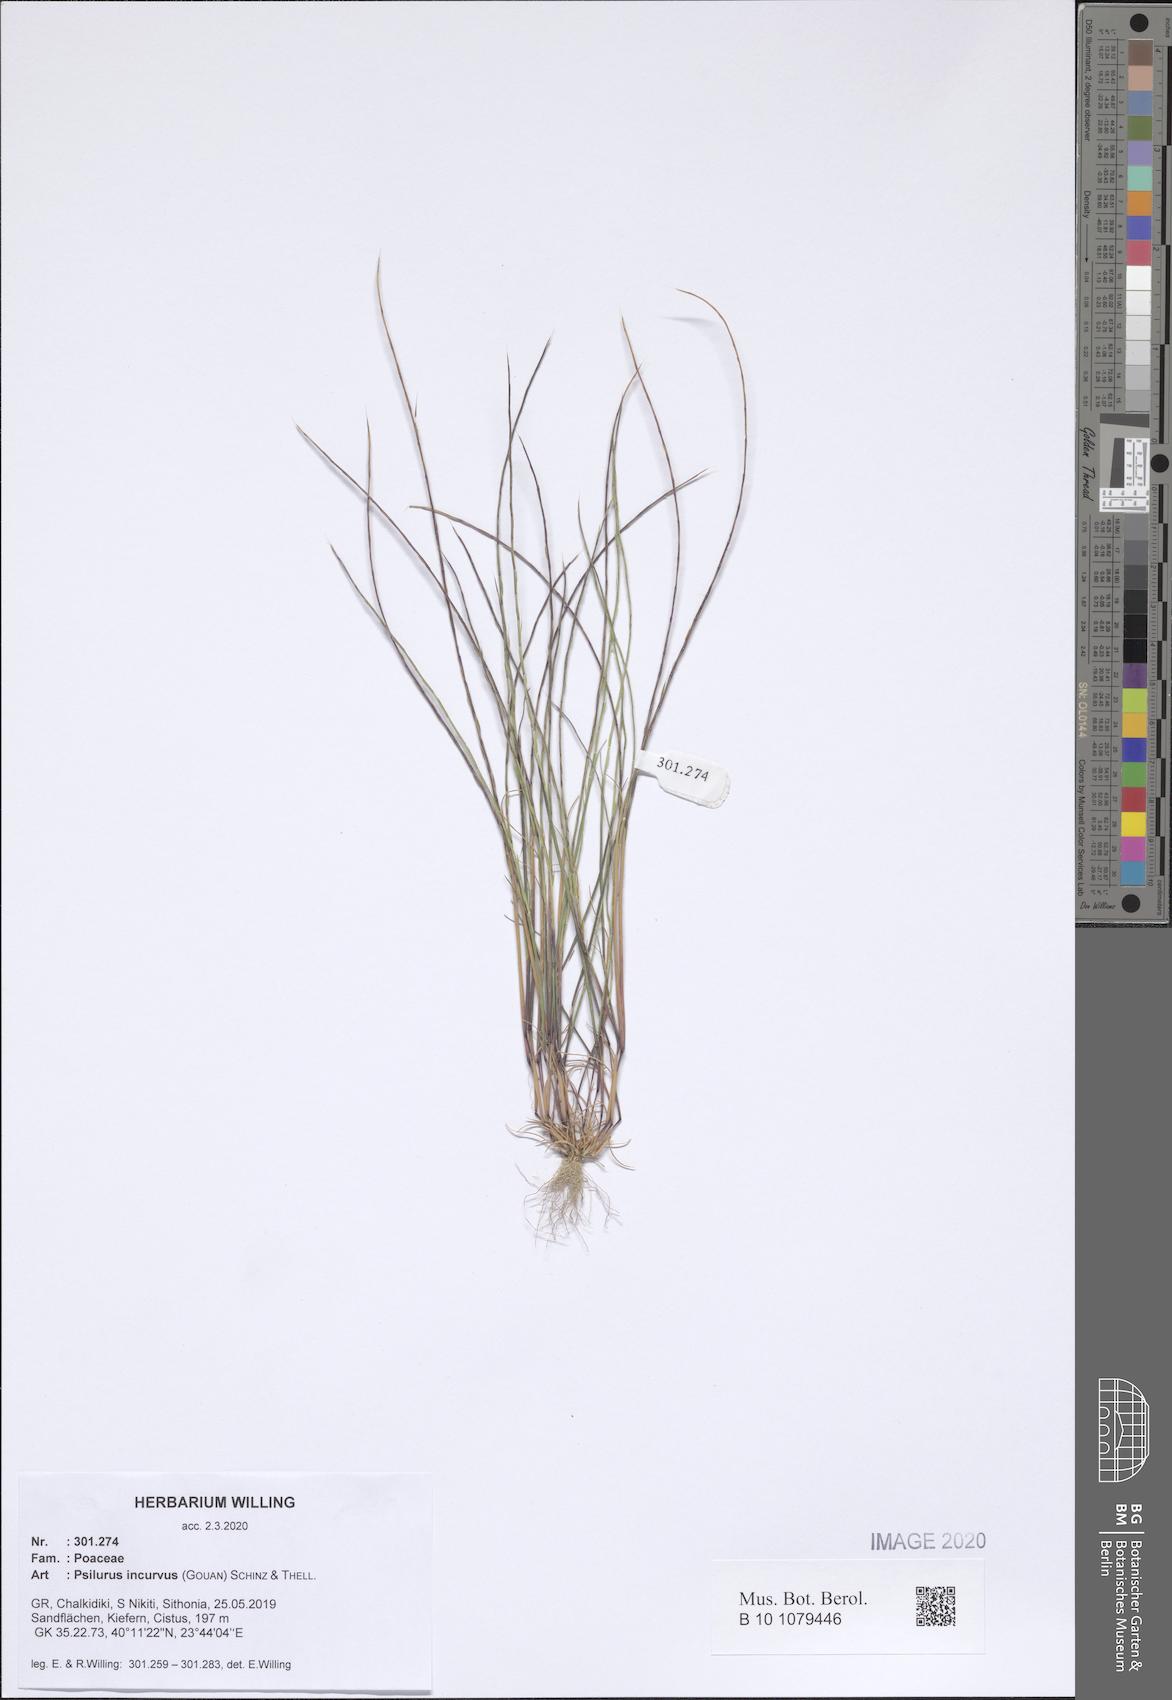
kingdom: Plantae
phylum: Tracheophyta
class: Liliopsida
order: Poales
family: Poaceae
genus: Festuca
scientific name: Festuca incurva
